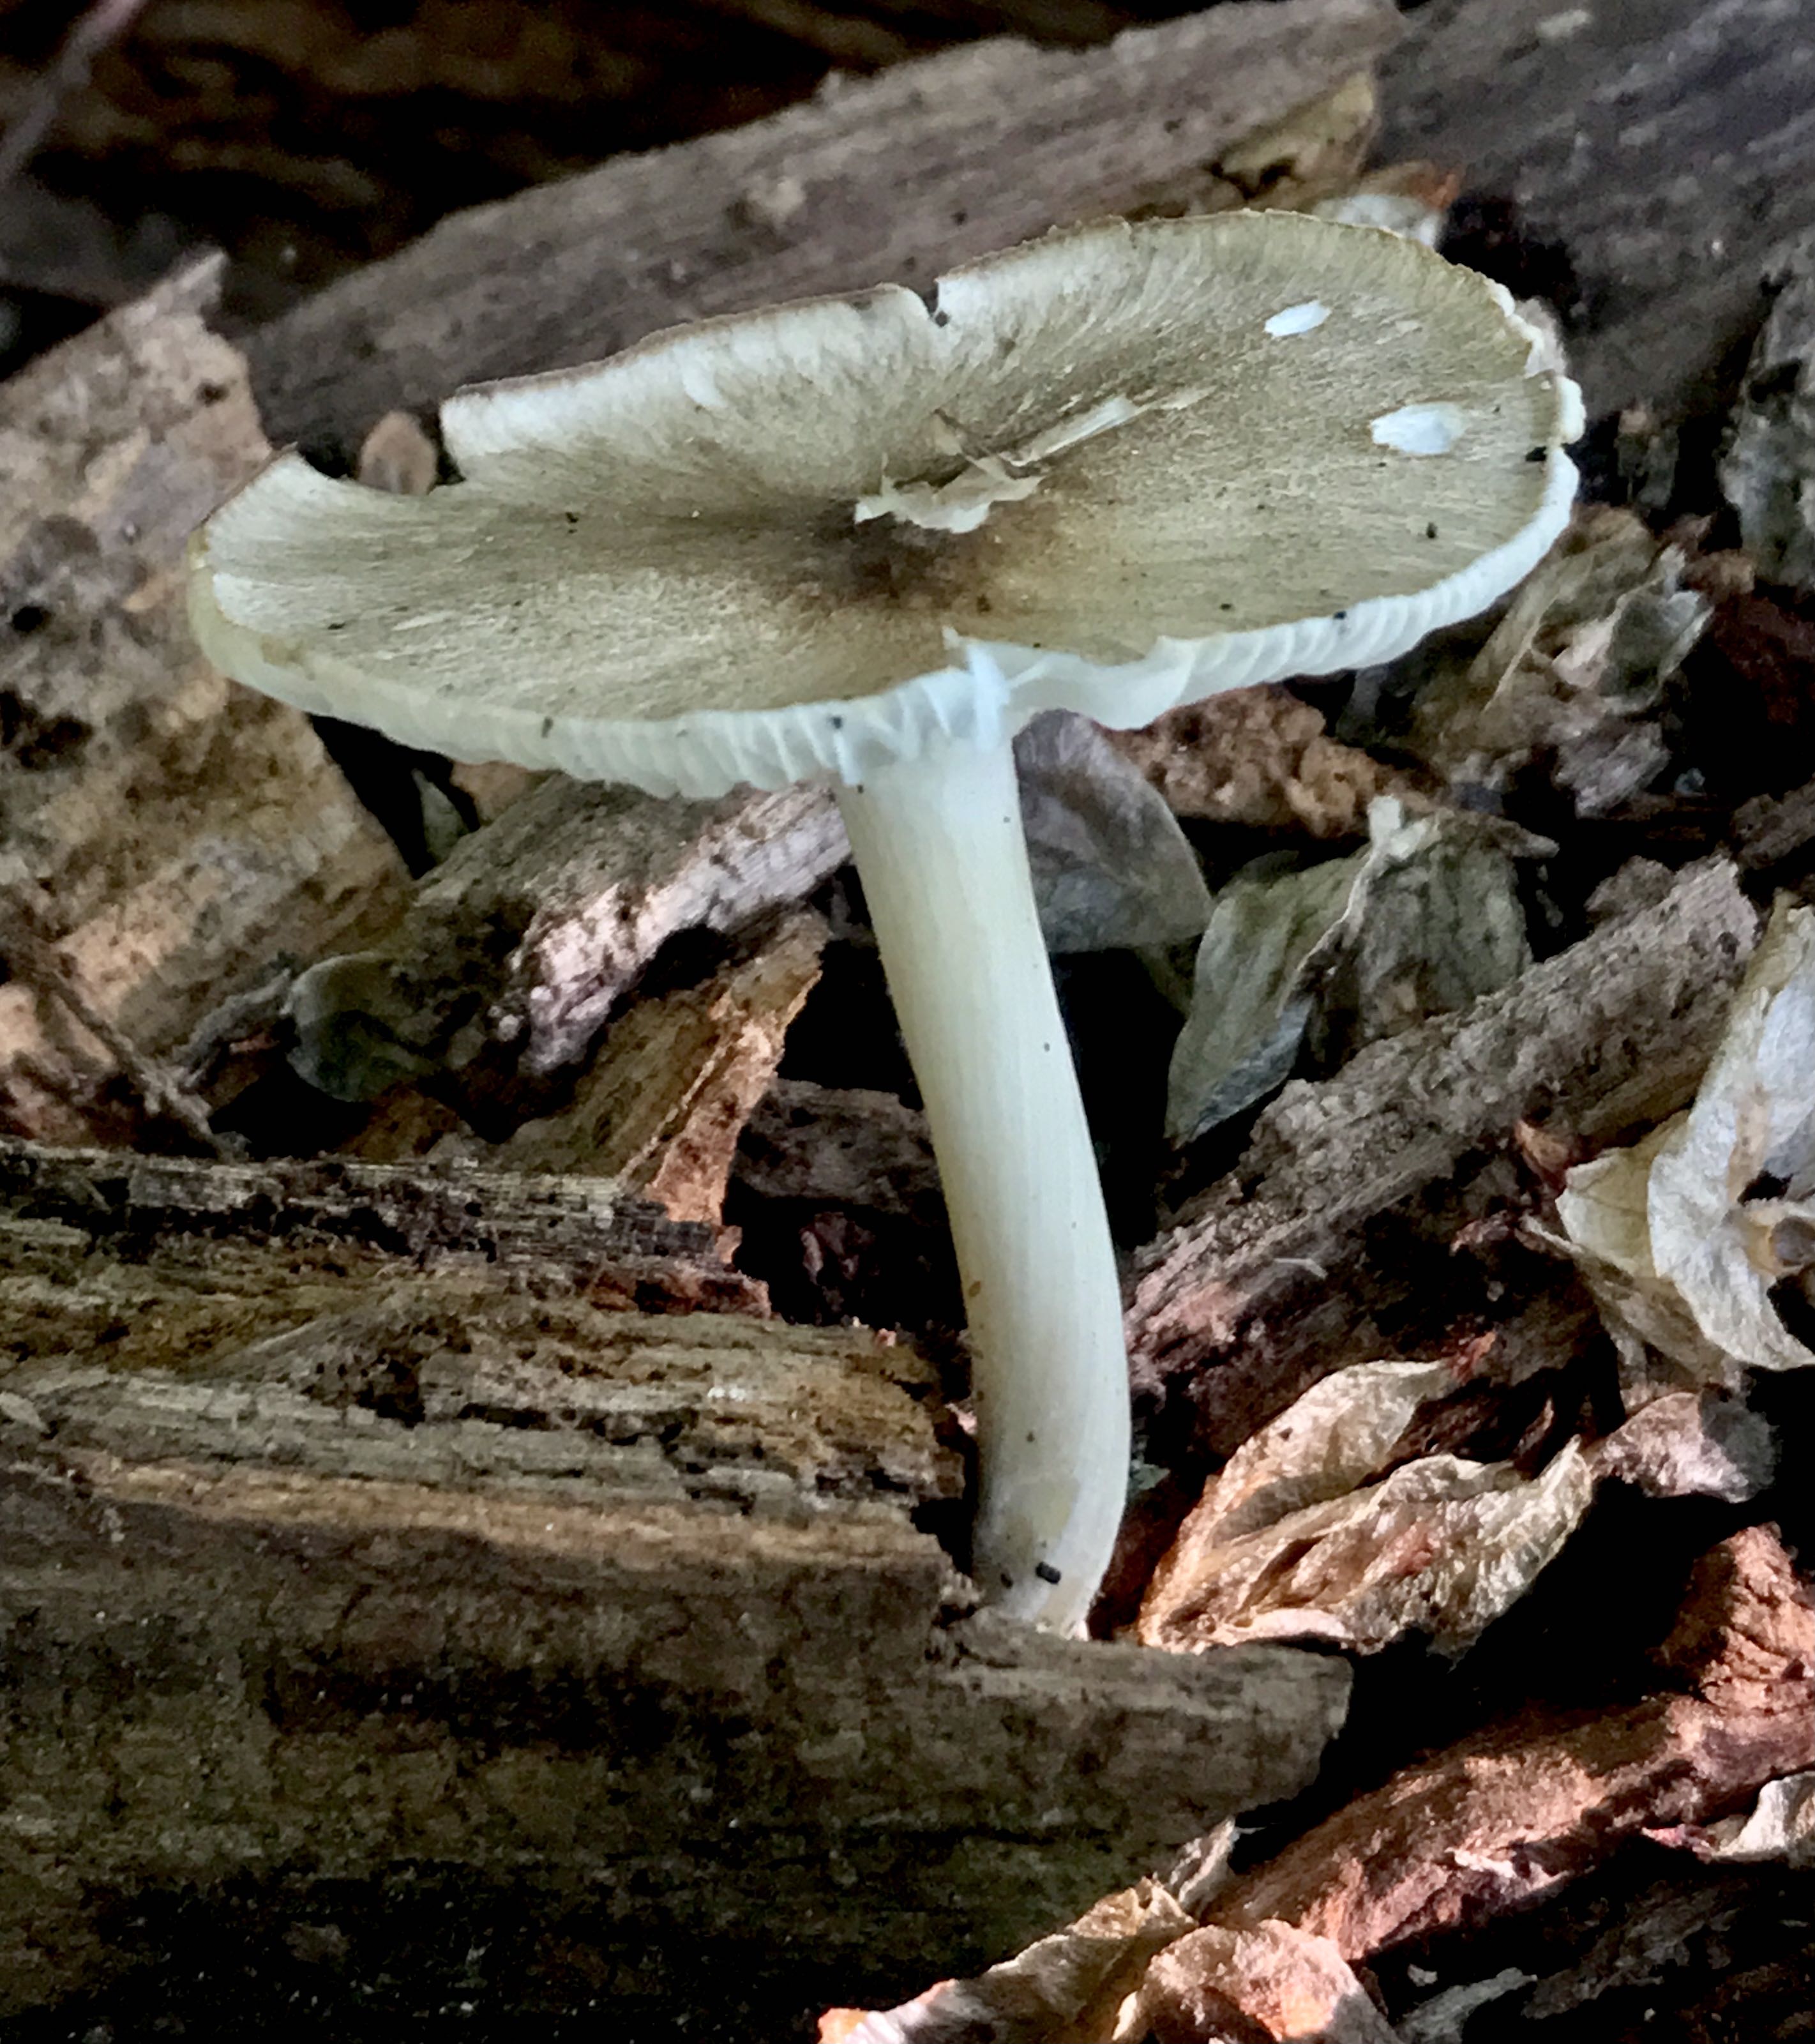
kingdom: Fungi
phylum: Basidiomycota
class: Agaricomycetes
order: Agaricales
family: Tricholomataceae
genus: Megacollybia
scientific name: Megacollybia platyphylla
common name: bredbladet væbnerhat
